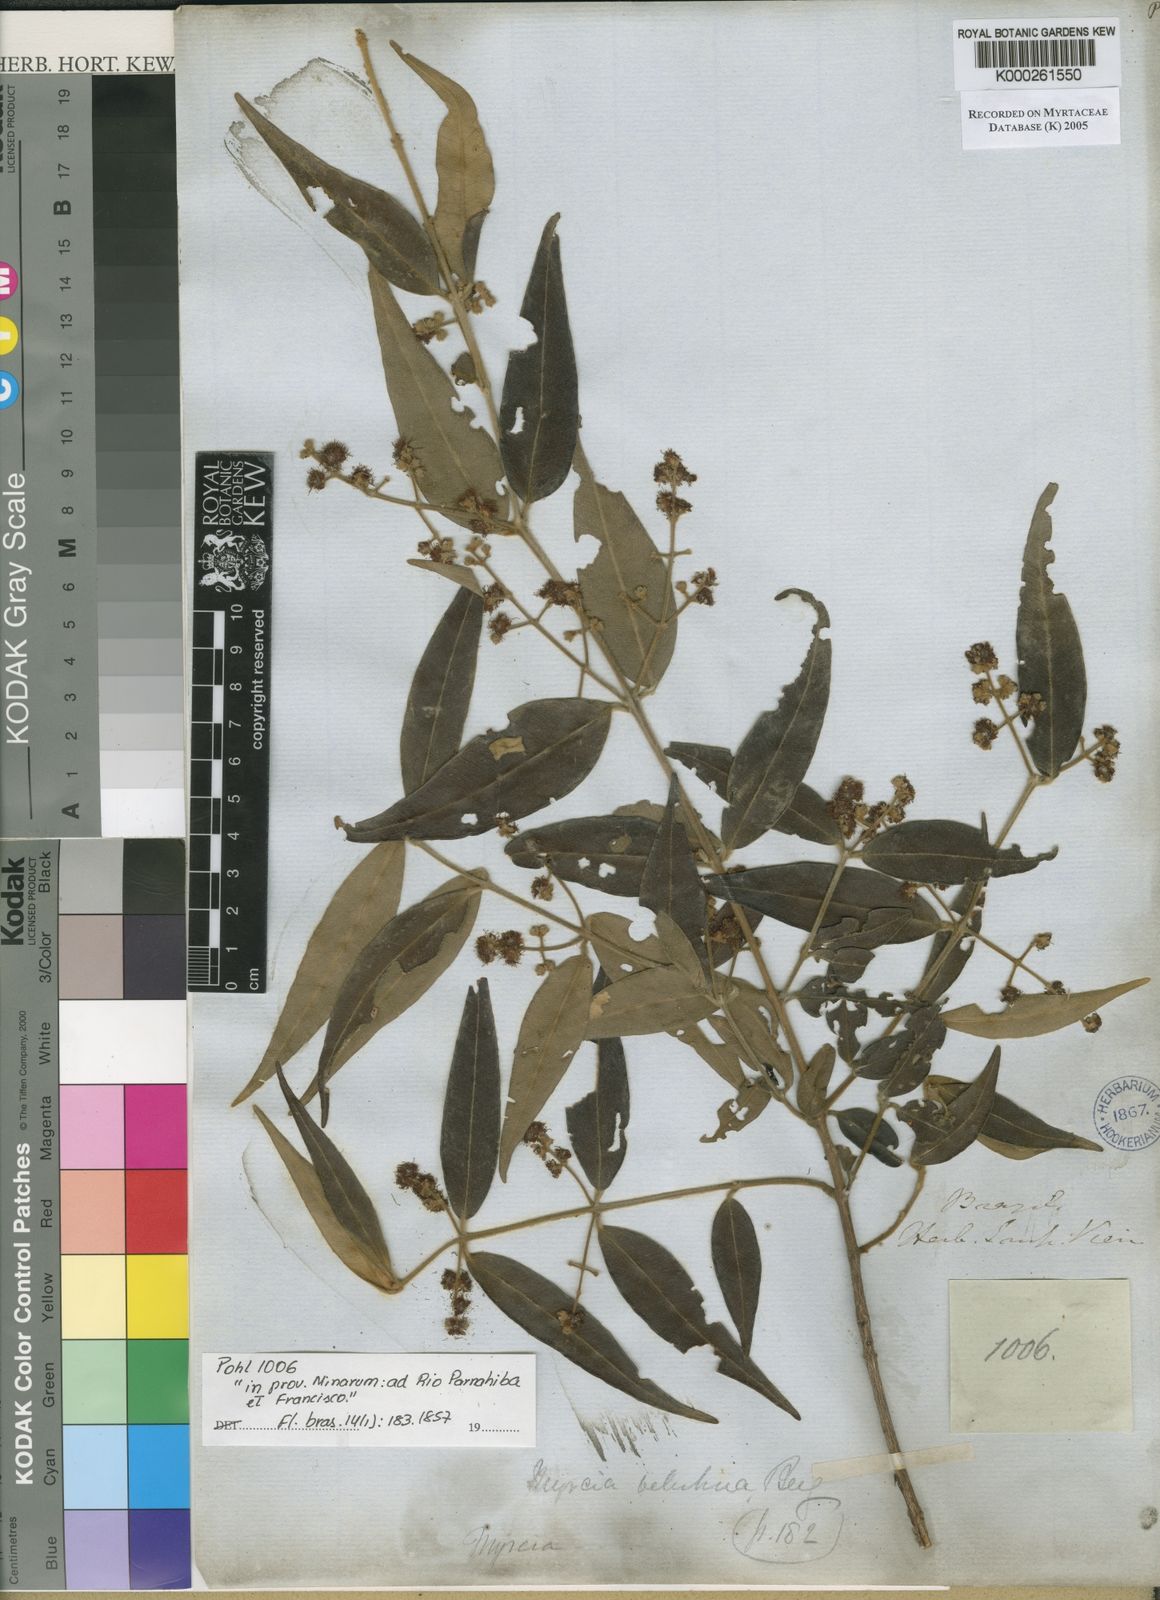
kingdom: Plantae
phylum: Tracheophyta
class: Magnoliopsida
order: Myrtales
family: Myrtaceae
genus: Myrcia
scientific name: Myrcia splendens
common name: Surinam cherry
